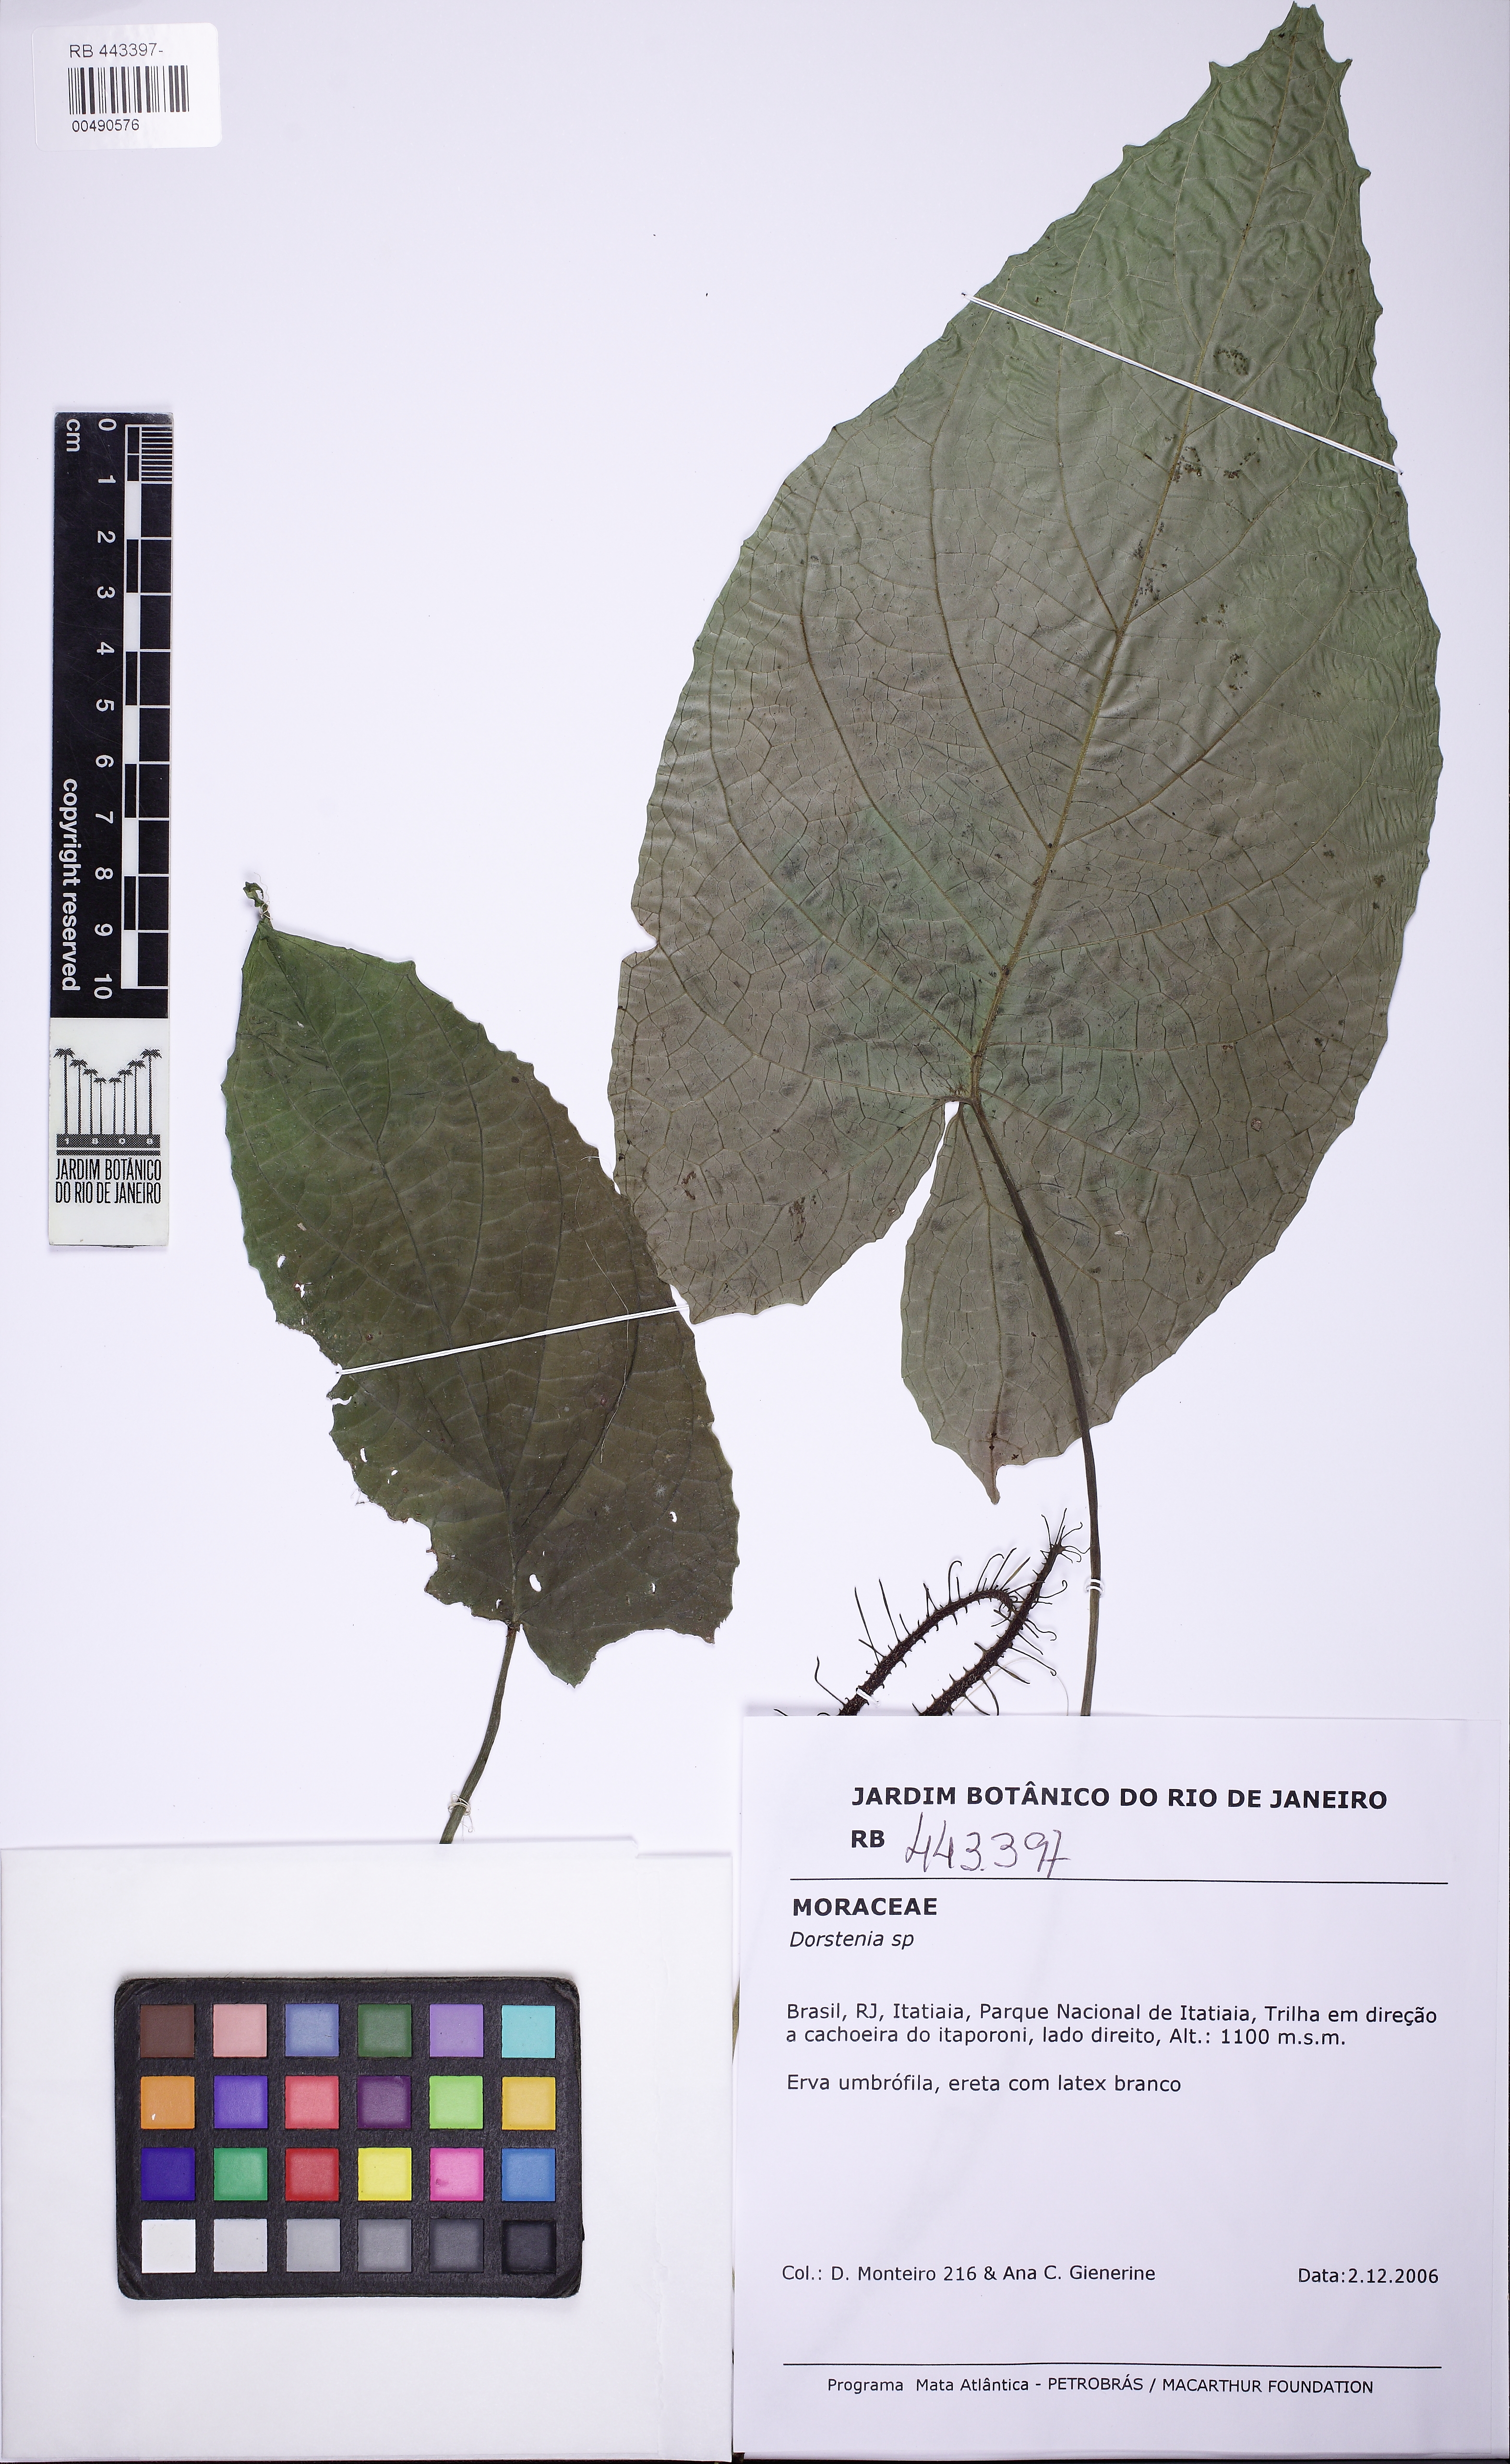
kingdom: Plantae
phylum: Tracheophyta
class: Magnoliopsida
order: Rosales
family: Moraceae
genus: Dorstenia
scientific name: Dorstenia ramosa
